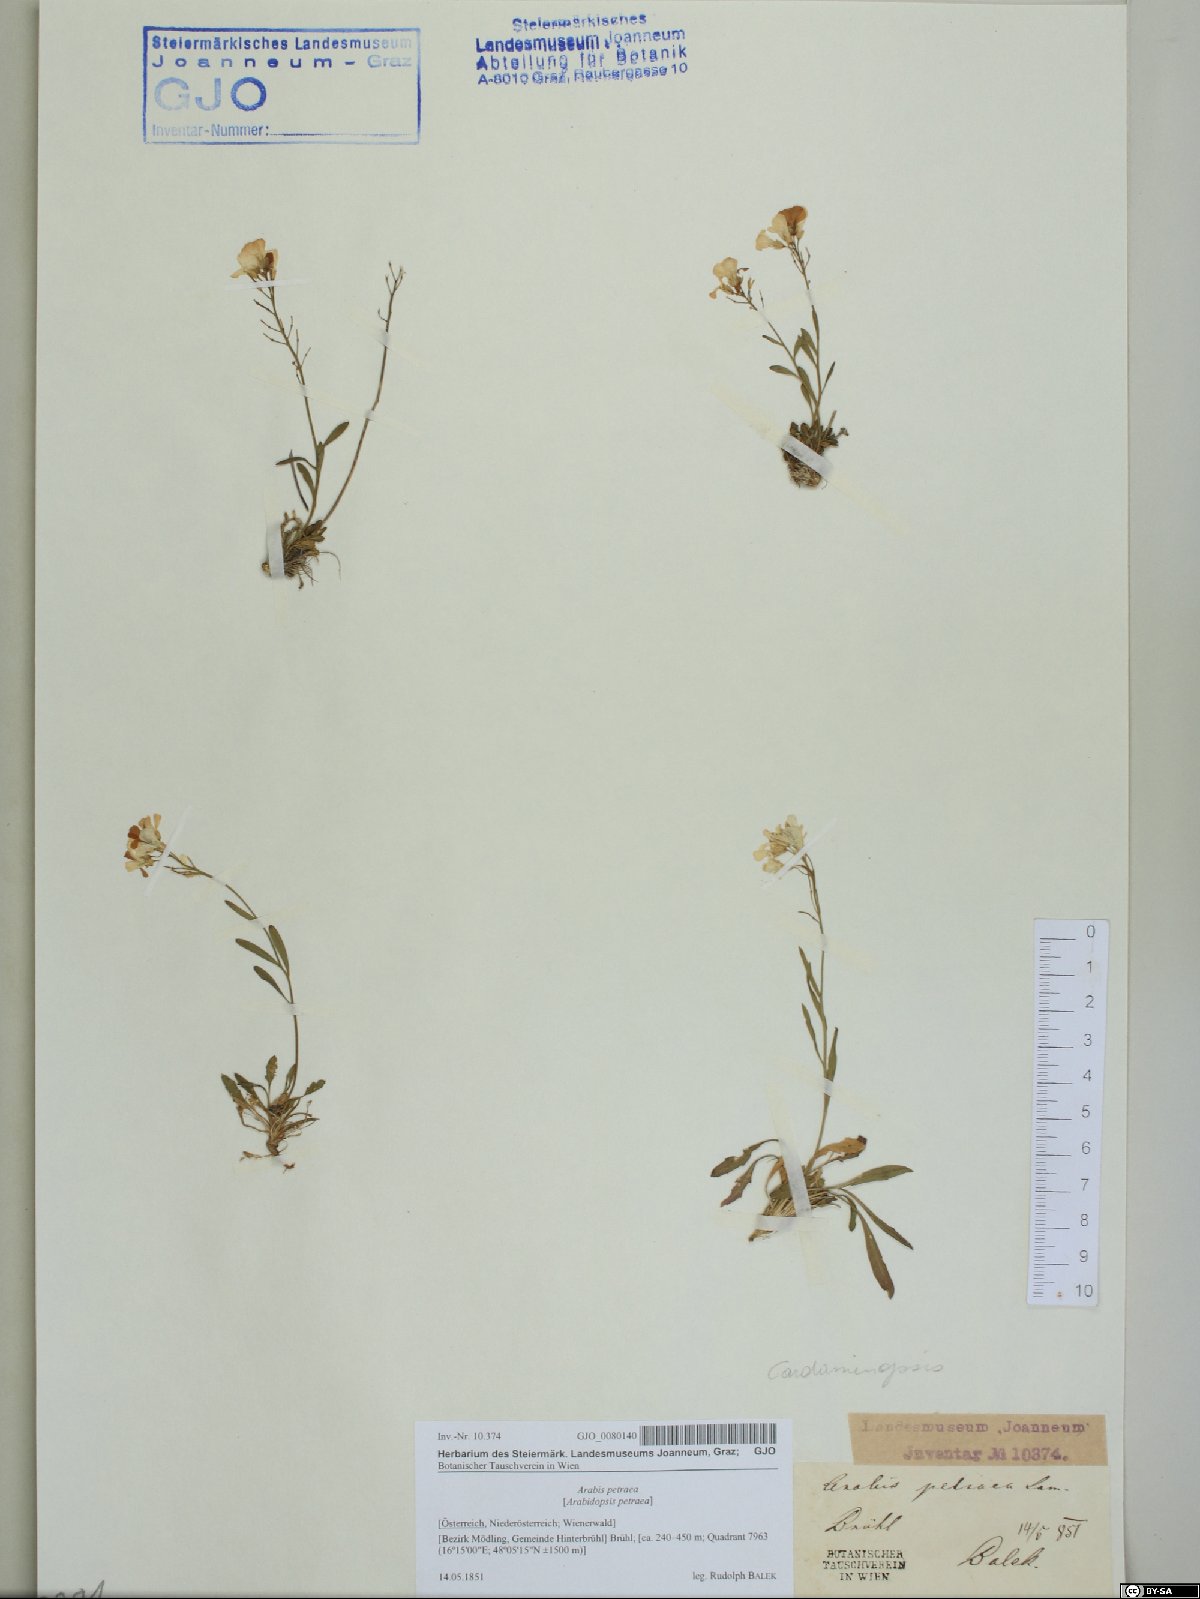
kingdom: Plantae
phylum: Tracheophyta
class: Magnoliopsida
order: Brassicales
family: Brassicaceae
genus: Arabidopsis
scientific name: Arabidopsis lyrata
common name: Lyrate rockcress
